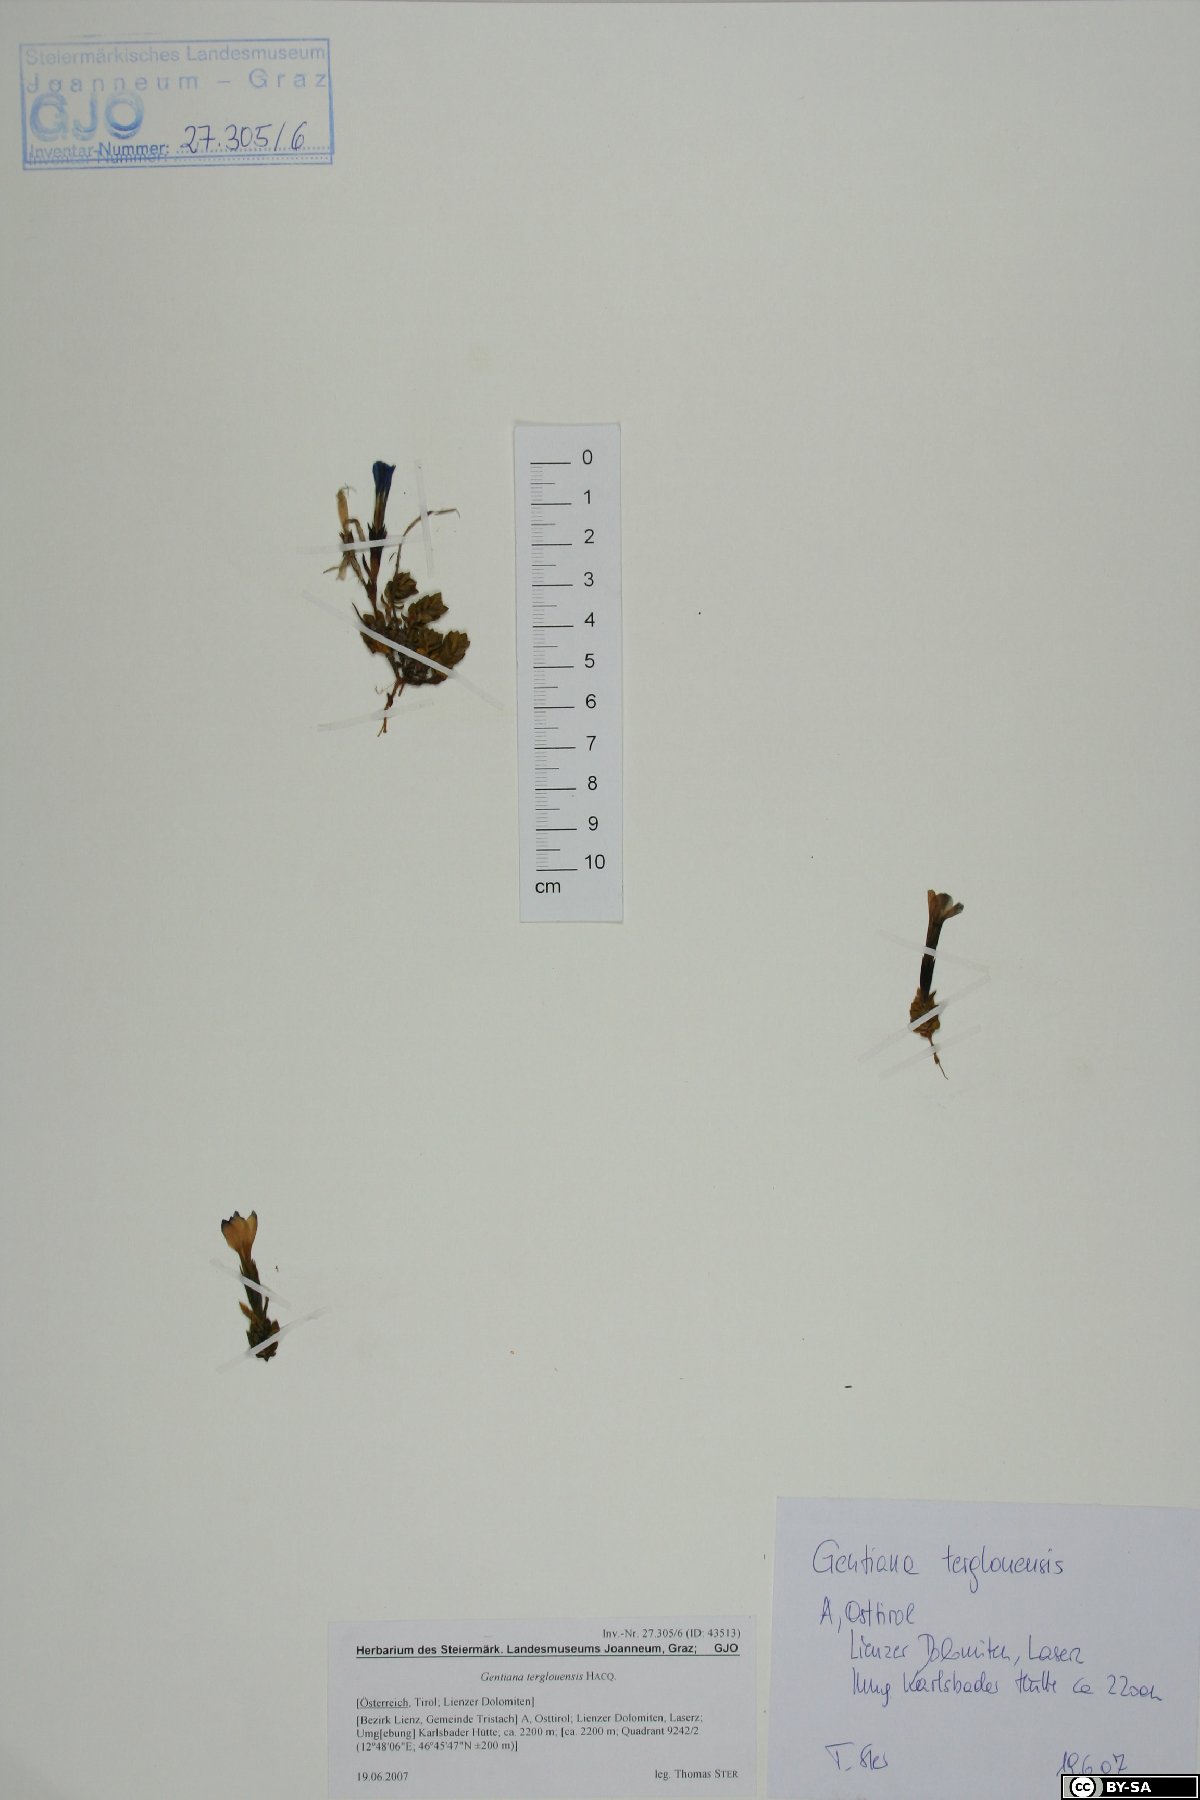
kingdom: Plantae
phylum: Tracheophyta
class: Magnoliopsida
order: Gentianales
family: Gentianaceae
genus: Gentiana
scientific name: Gentiana terglouensis
